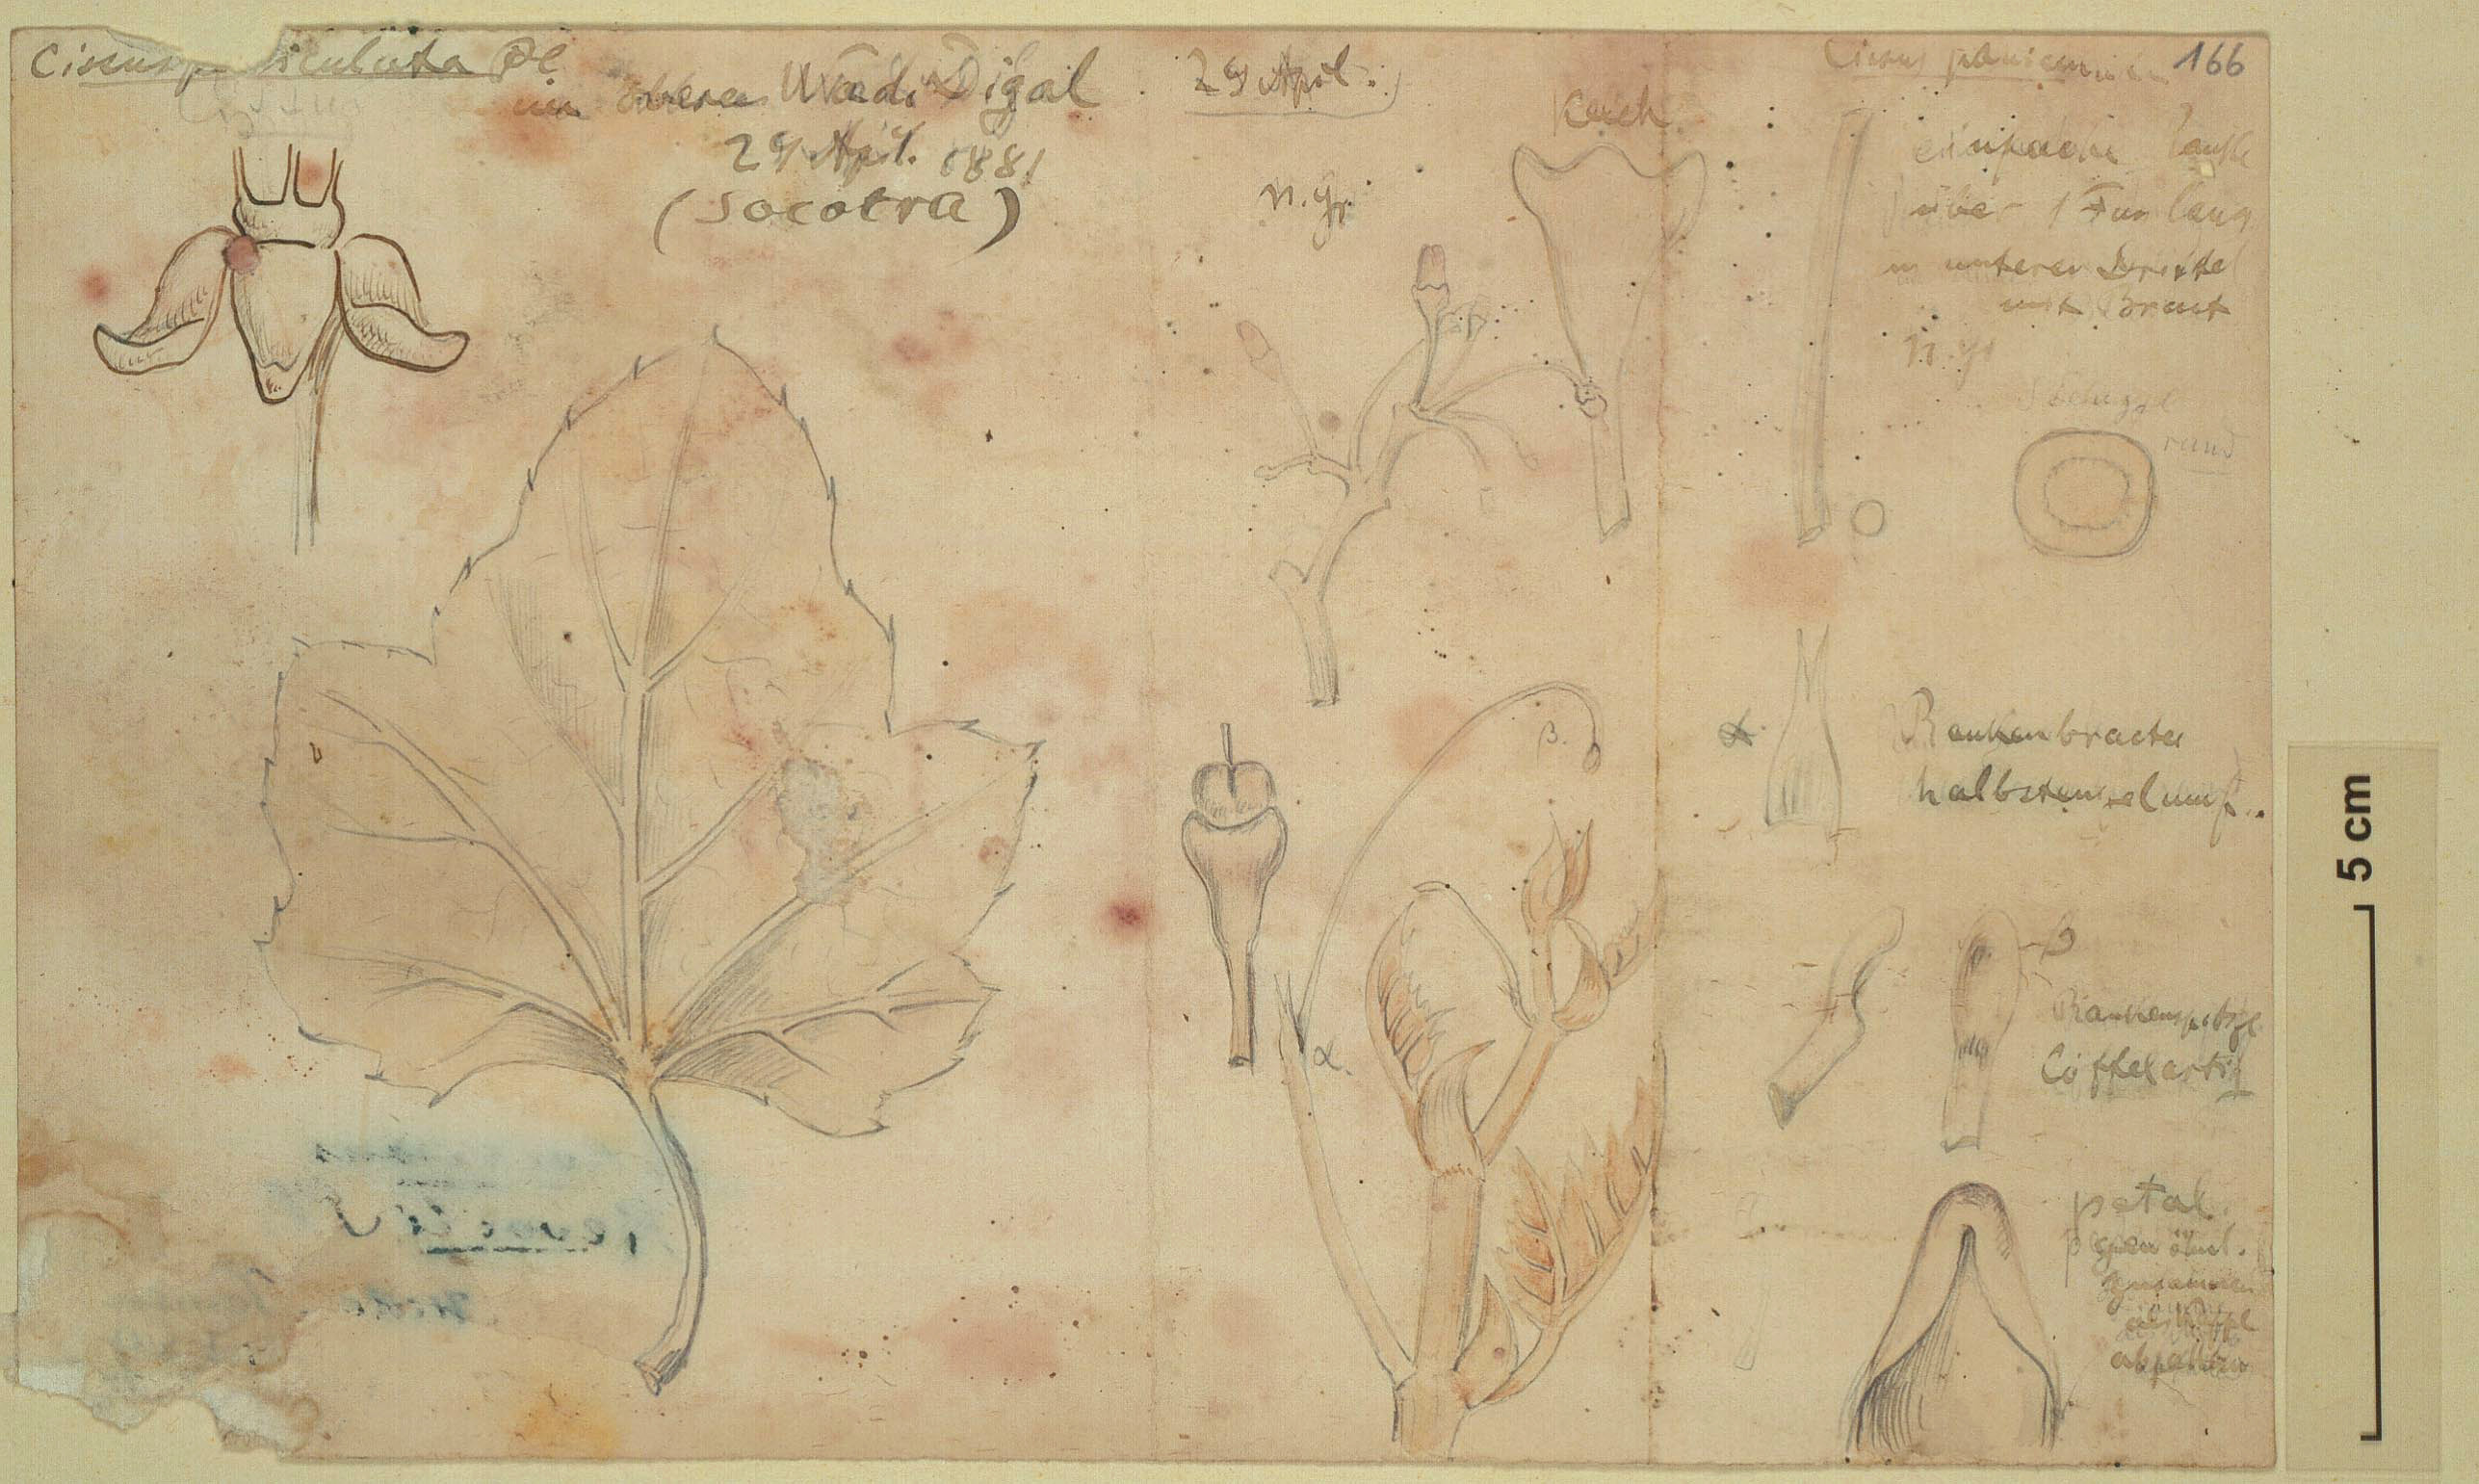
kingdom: Plantae
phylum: Tracheophyta
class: Magnoliopsida
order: Vitales
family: Vitaceae
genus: Cissus
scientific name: Cissus paniculata
